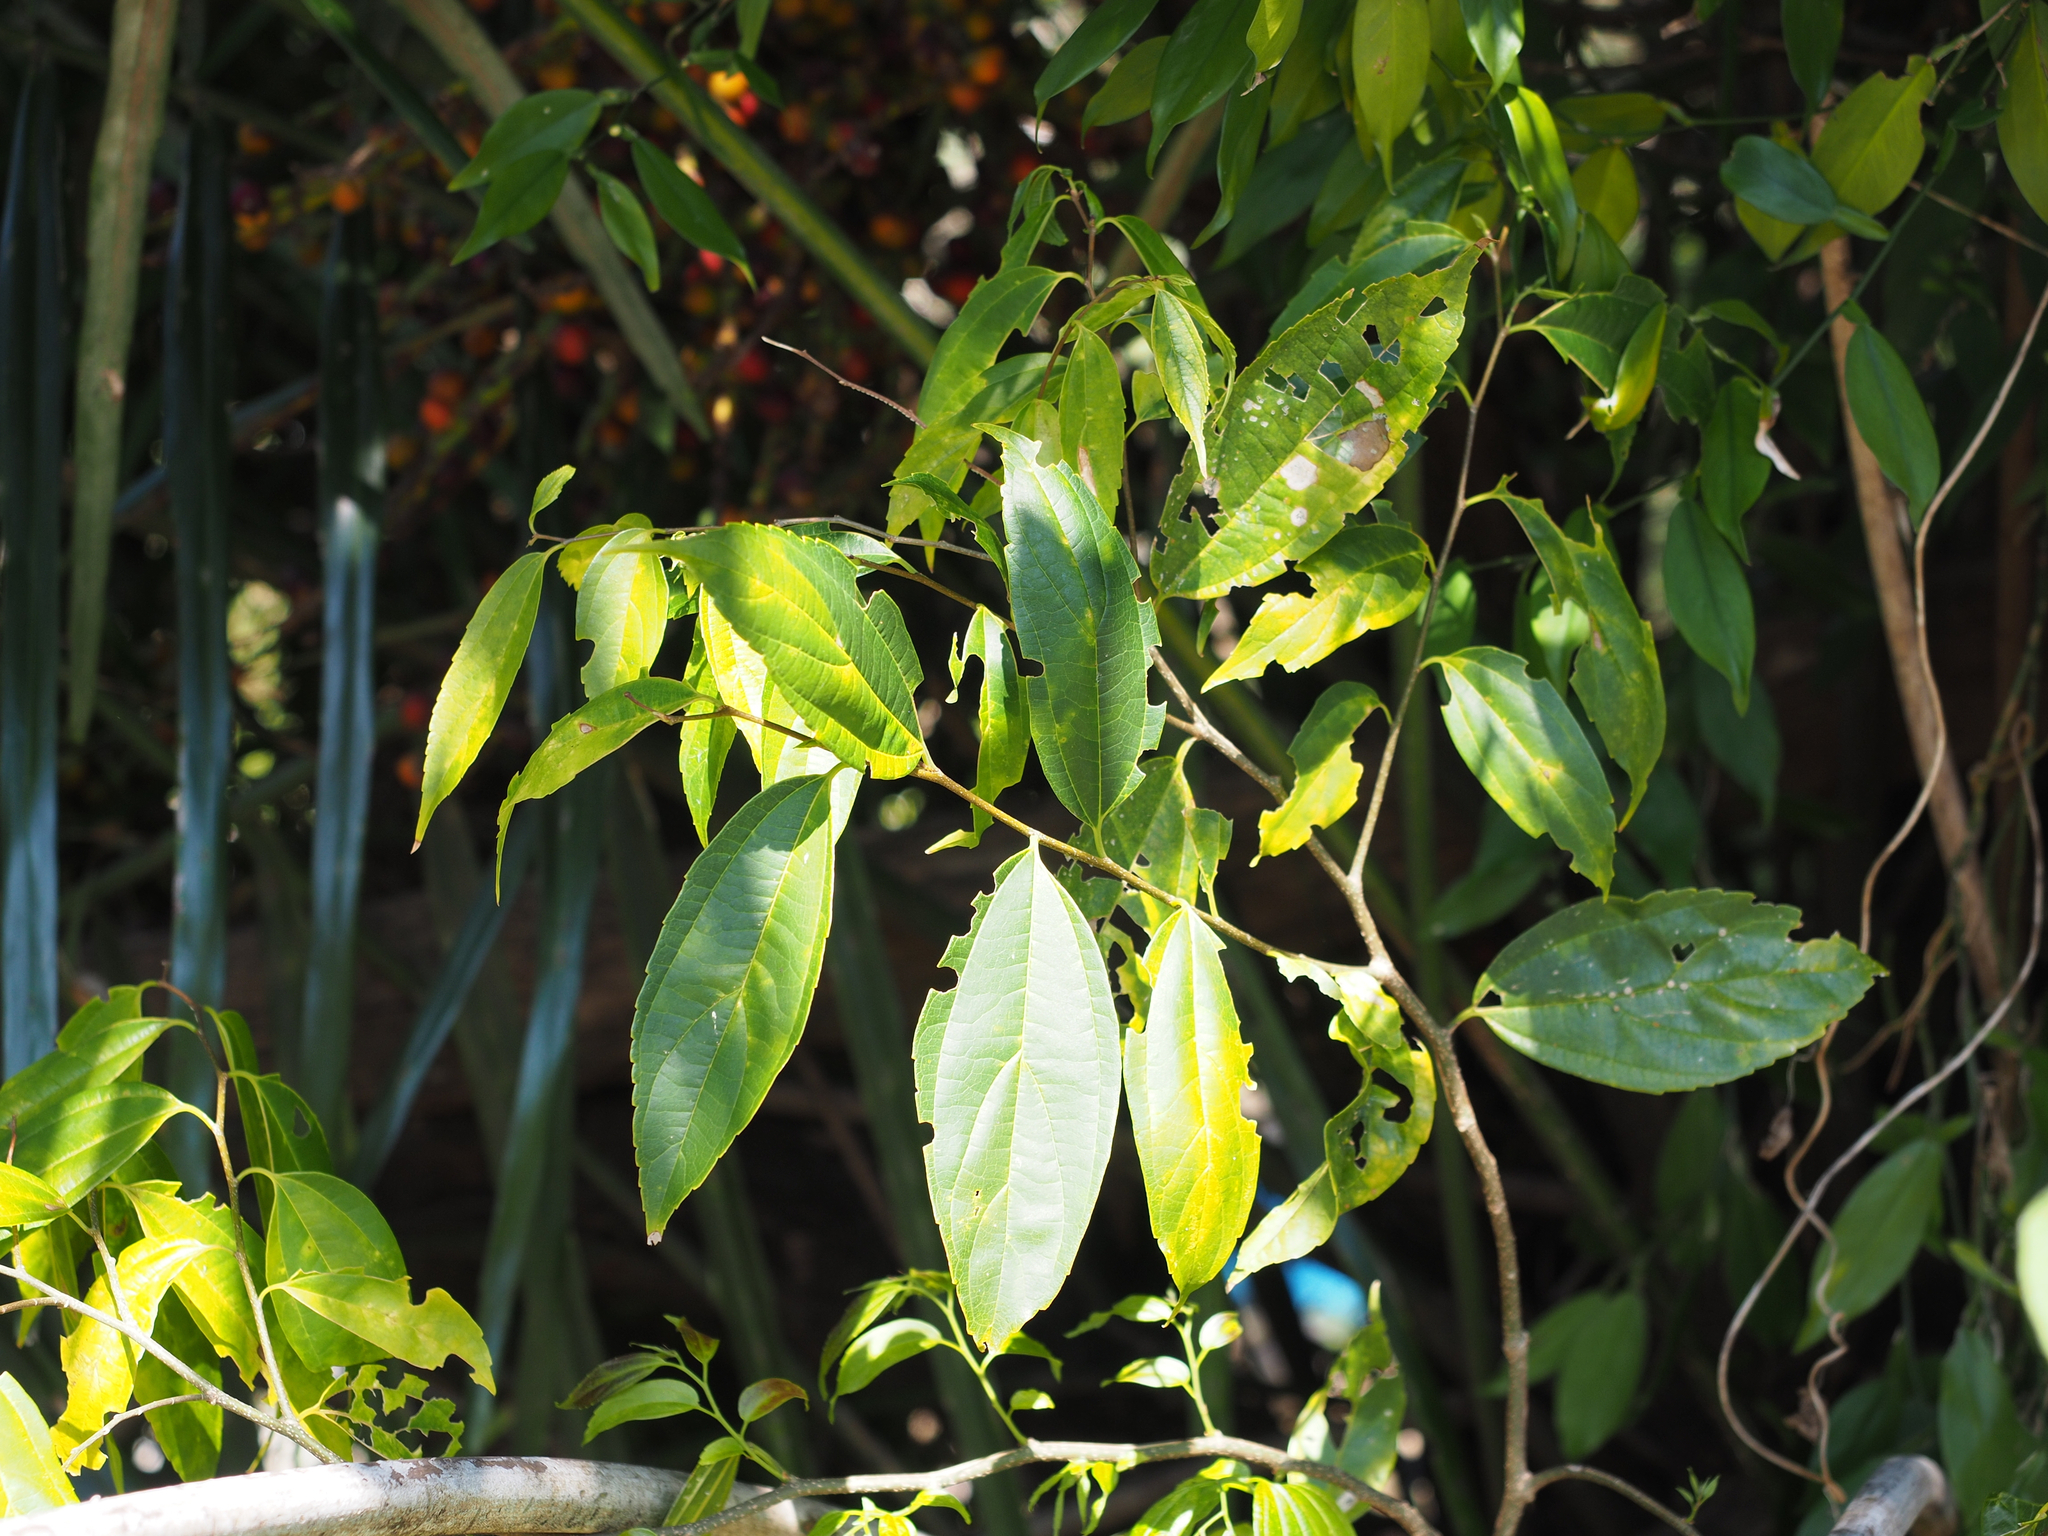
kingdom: Plantae
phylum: Tracheophyta
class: Magnoliopsida
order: Rosales
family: Cannabaceae
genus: Celtis
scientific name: Celtis tetrandra
